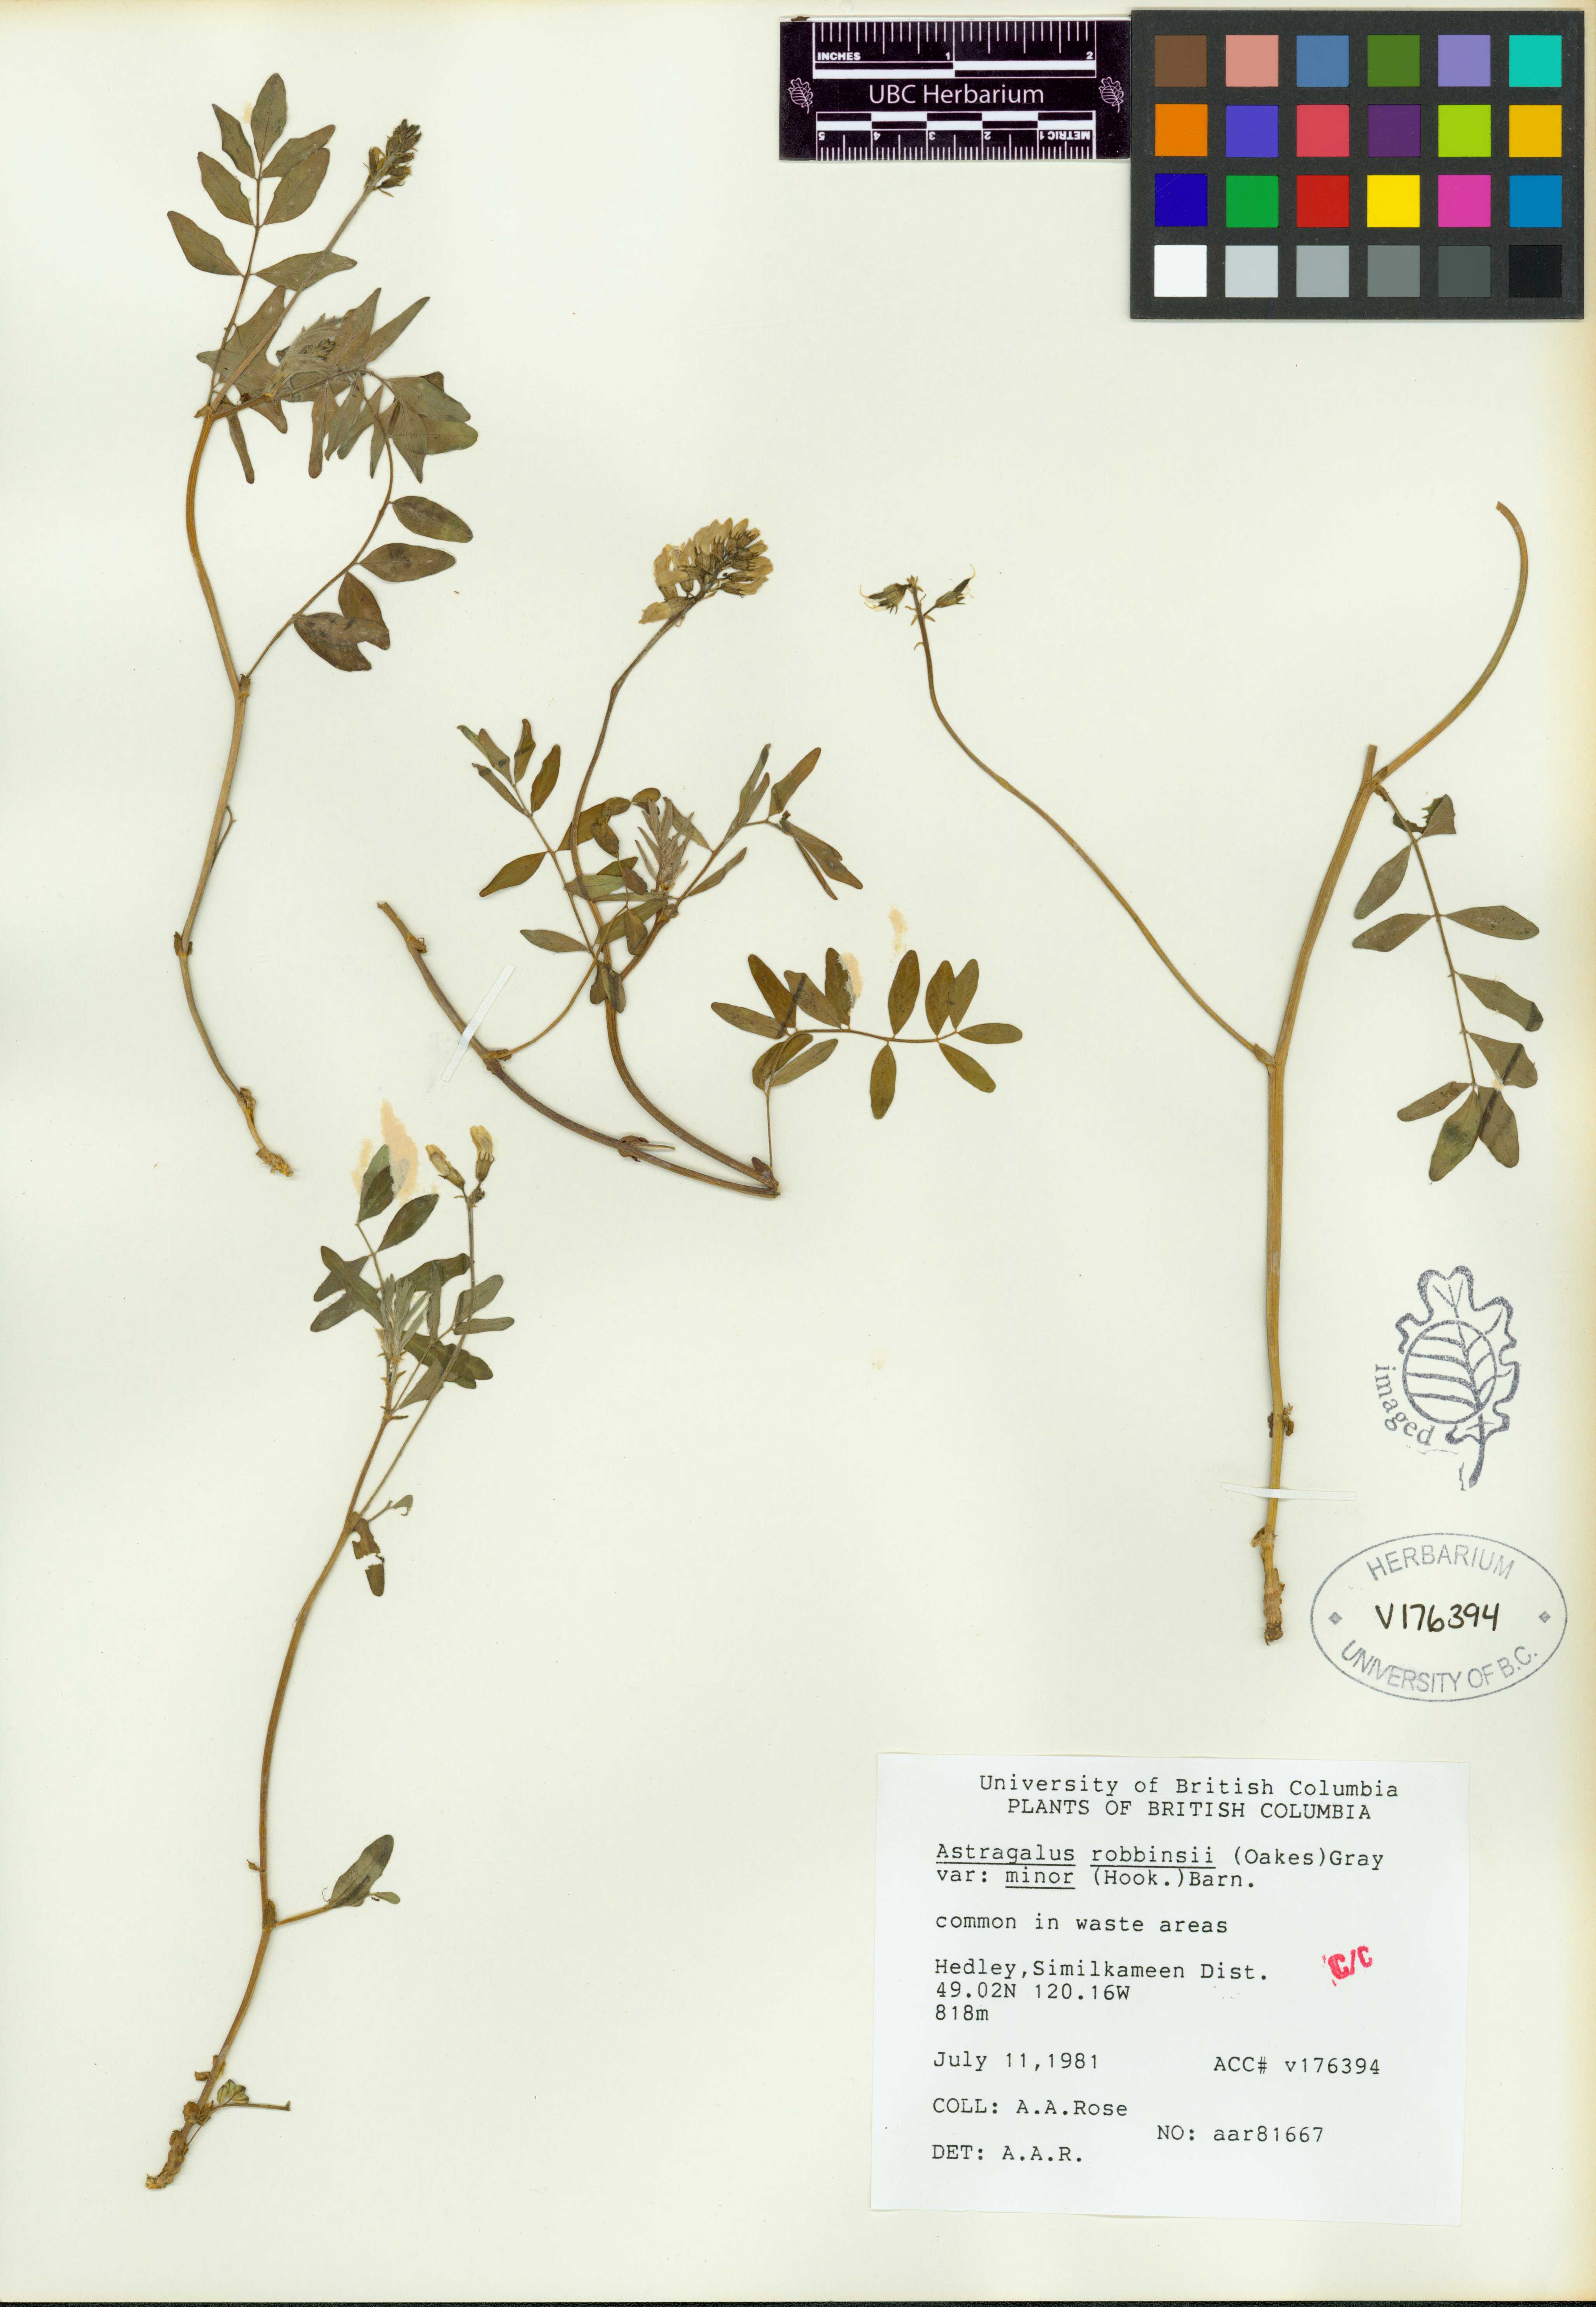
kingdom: Plantae
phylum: Tracheophyta
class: Magnoliopsida
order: Fabales
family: Fabaceae
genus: Astragalus
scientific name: Astragalus robbinsii
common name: Robbins' milk-vetch
